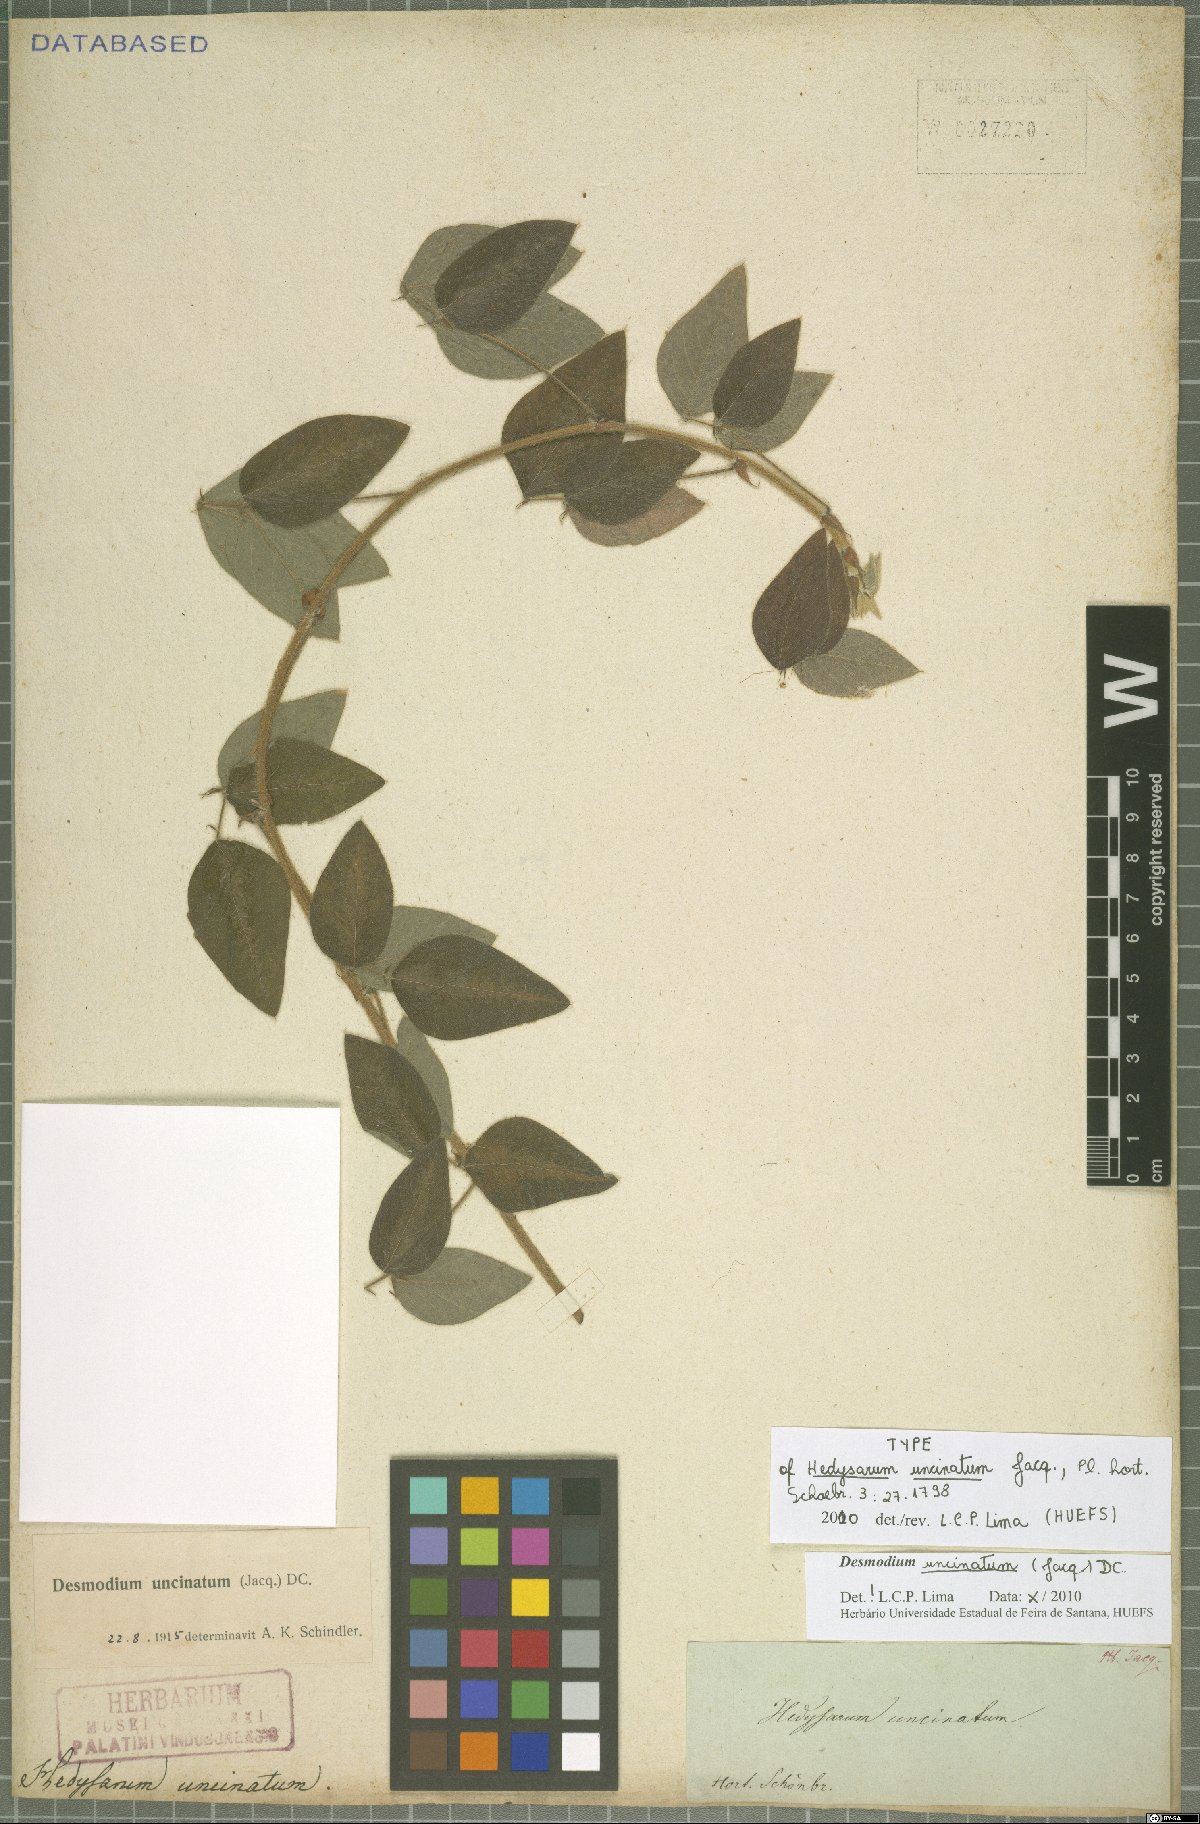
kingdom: Plantae
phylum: Tracheophyta
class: Magnoliopsida
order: Fabales
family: Fabaceae
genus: Desmodium
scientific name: Desmodium uncinatum
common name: Silverleaf desmodium
